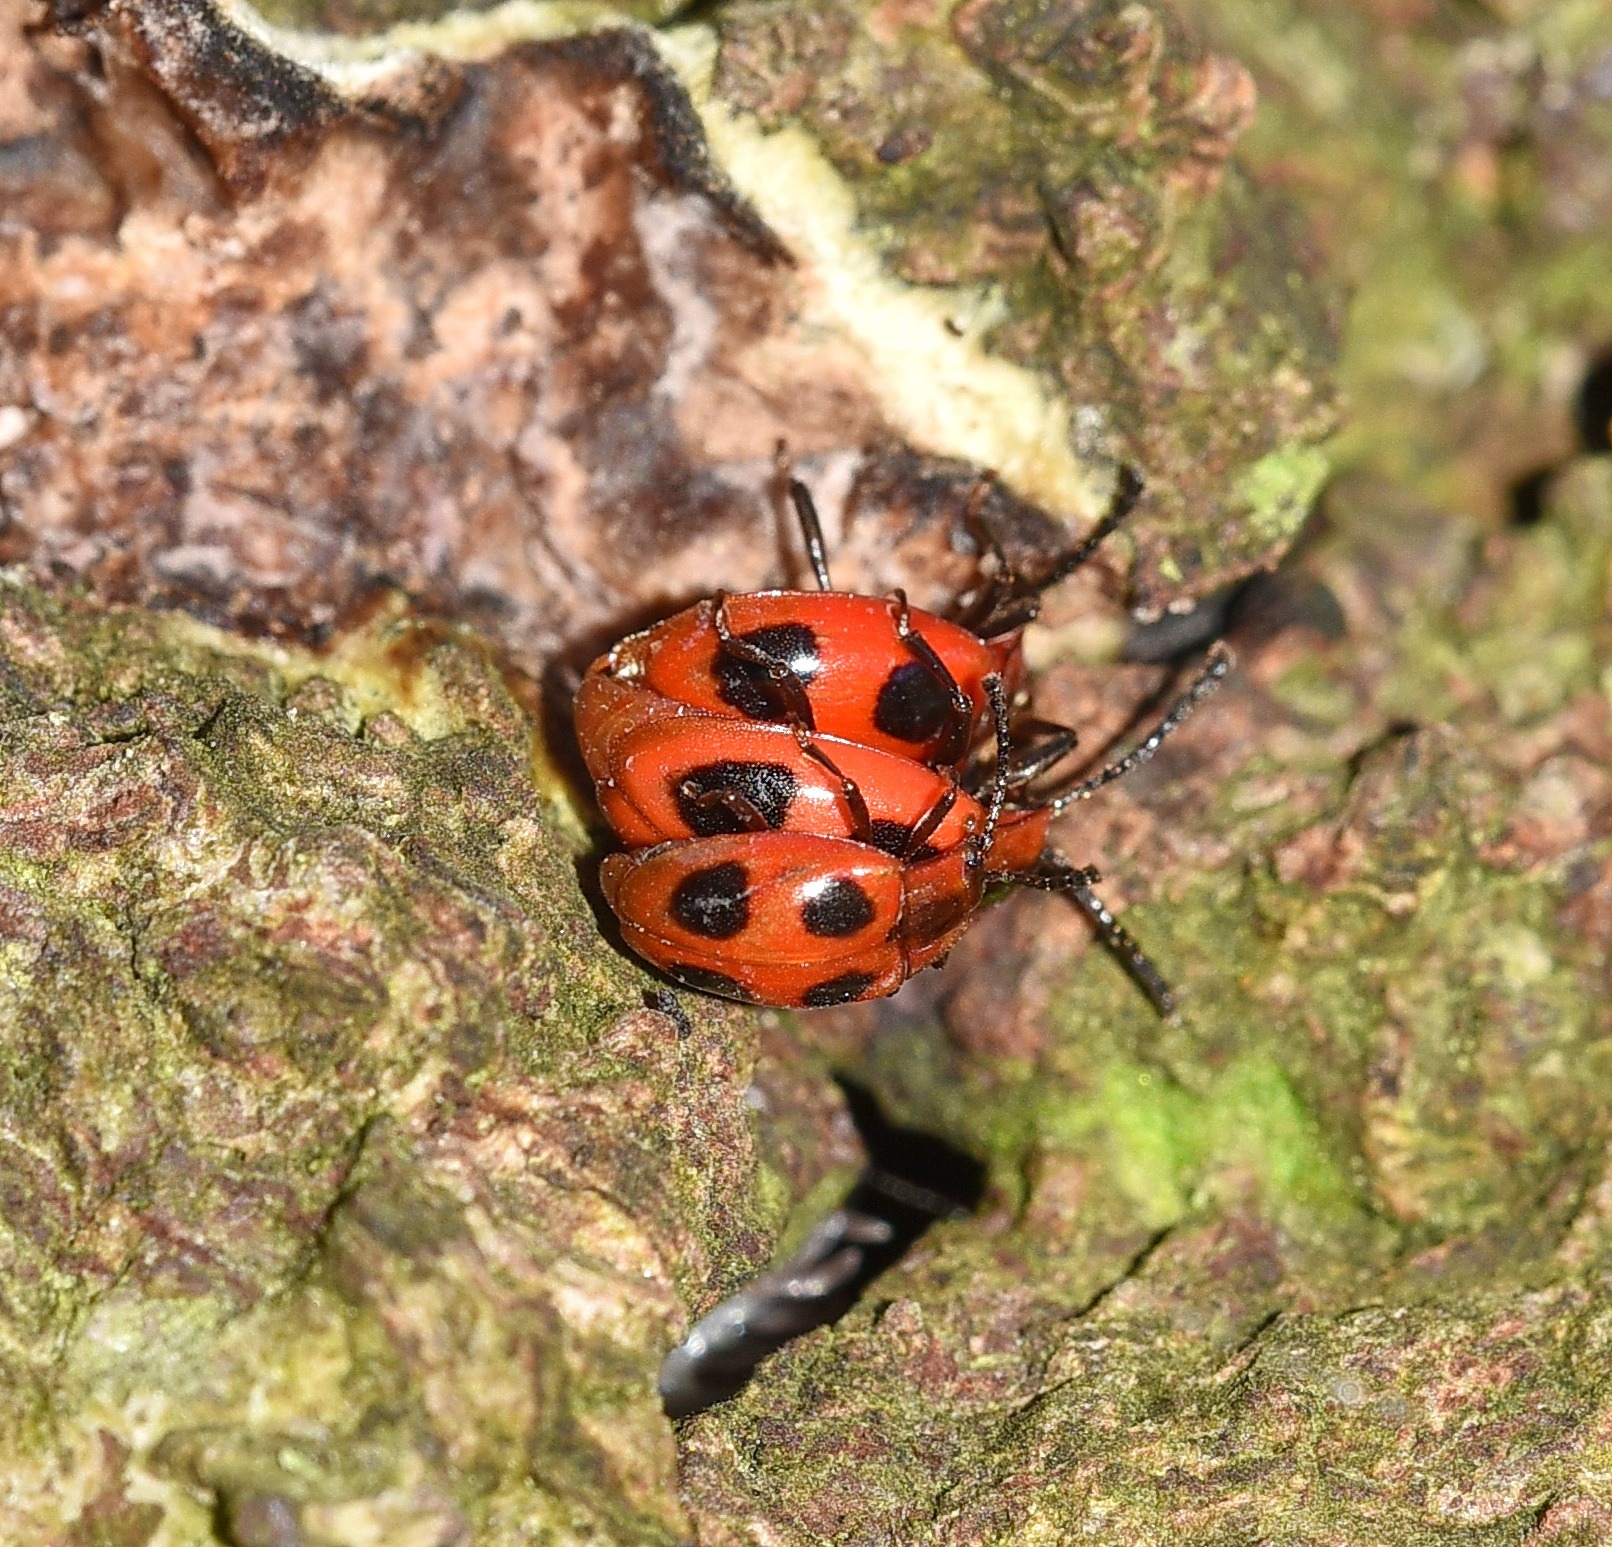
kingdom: Animalia
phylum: Arthropoda
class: Insecta
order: Coleoptera
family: Endomychidae
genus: Endomychus
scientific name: Endomychus coccineus
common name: Skarlagensvampehøne
